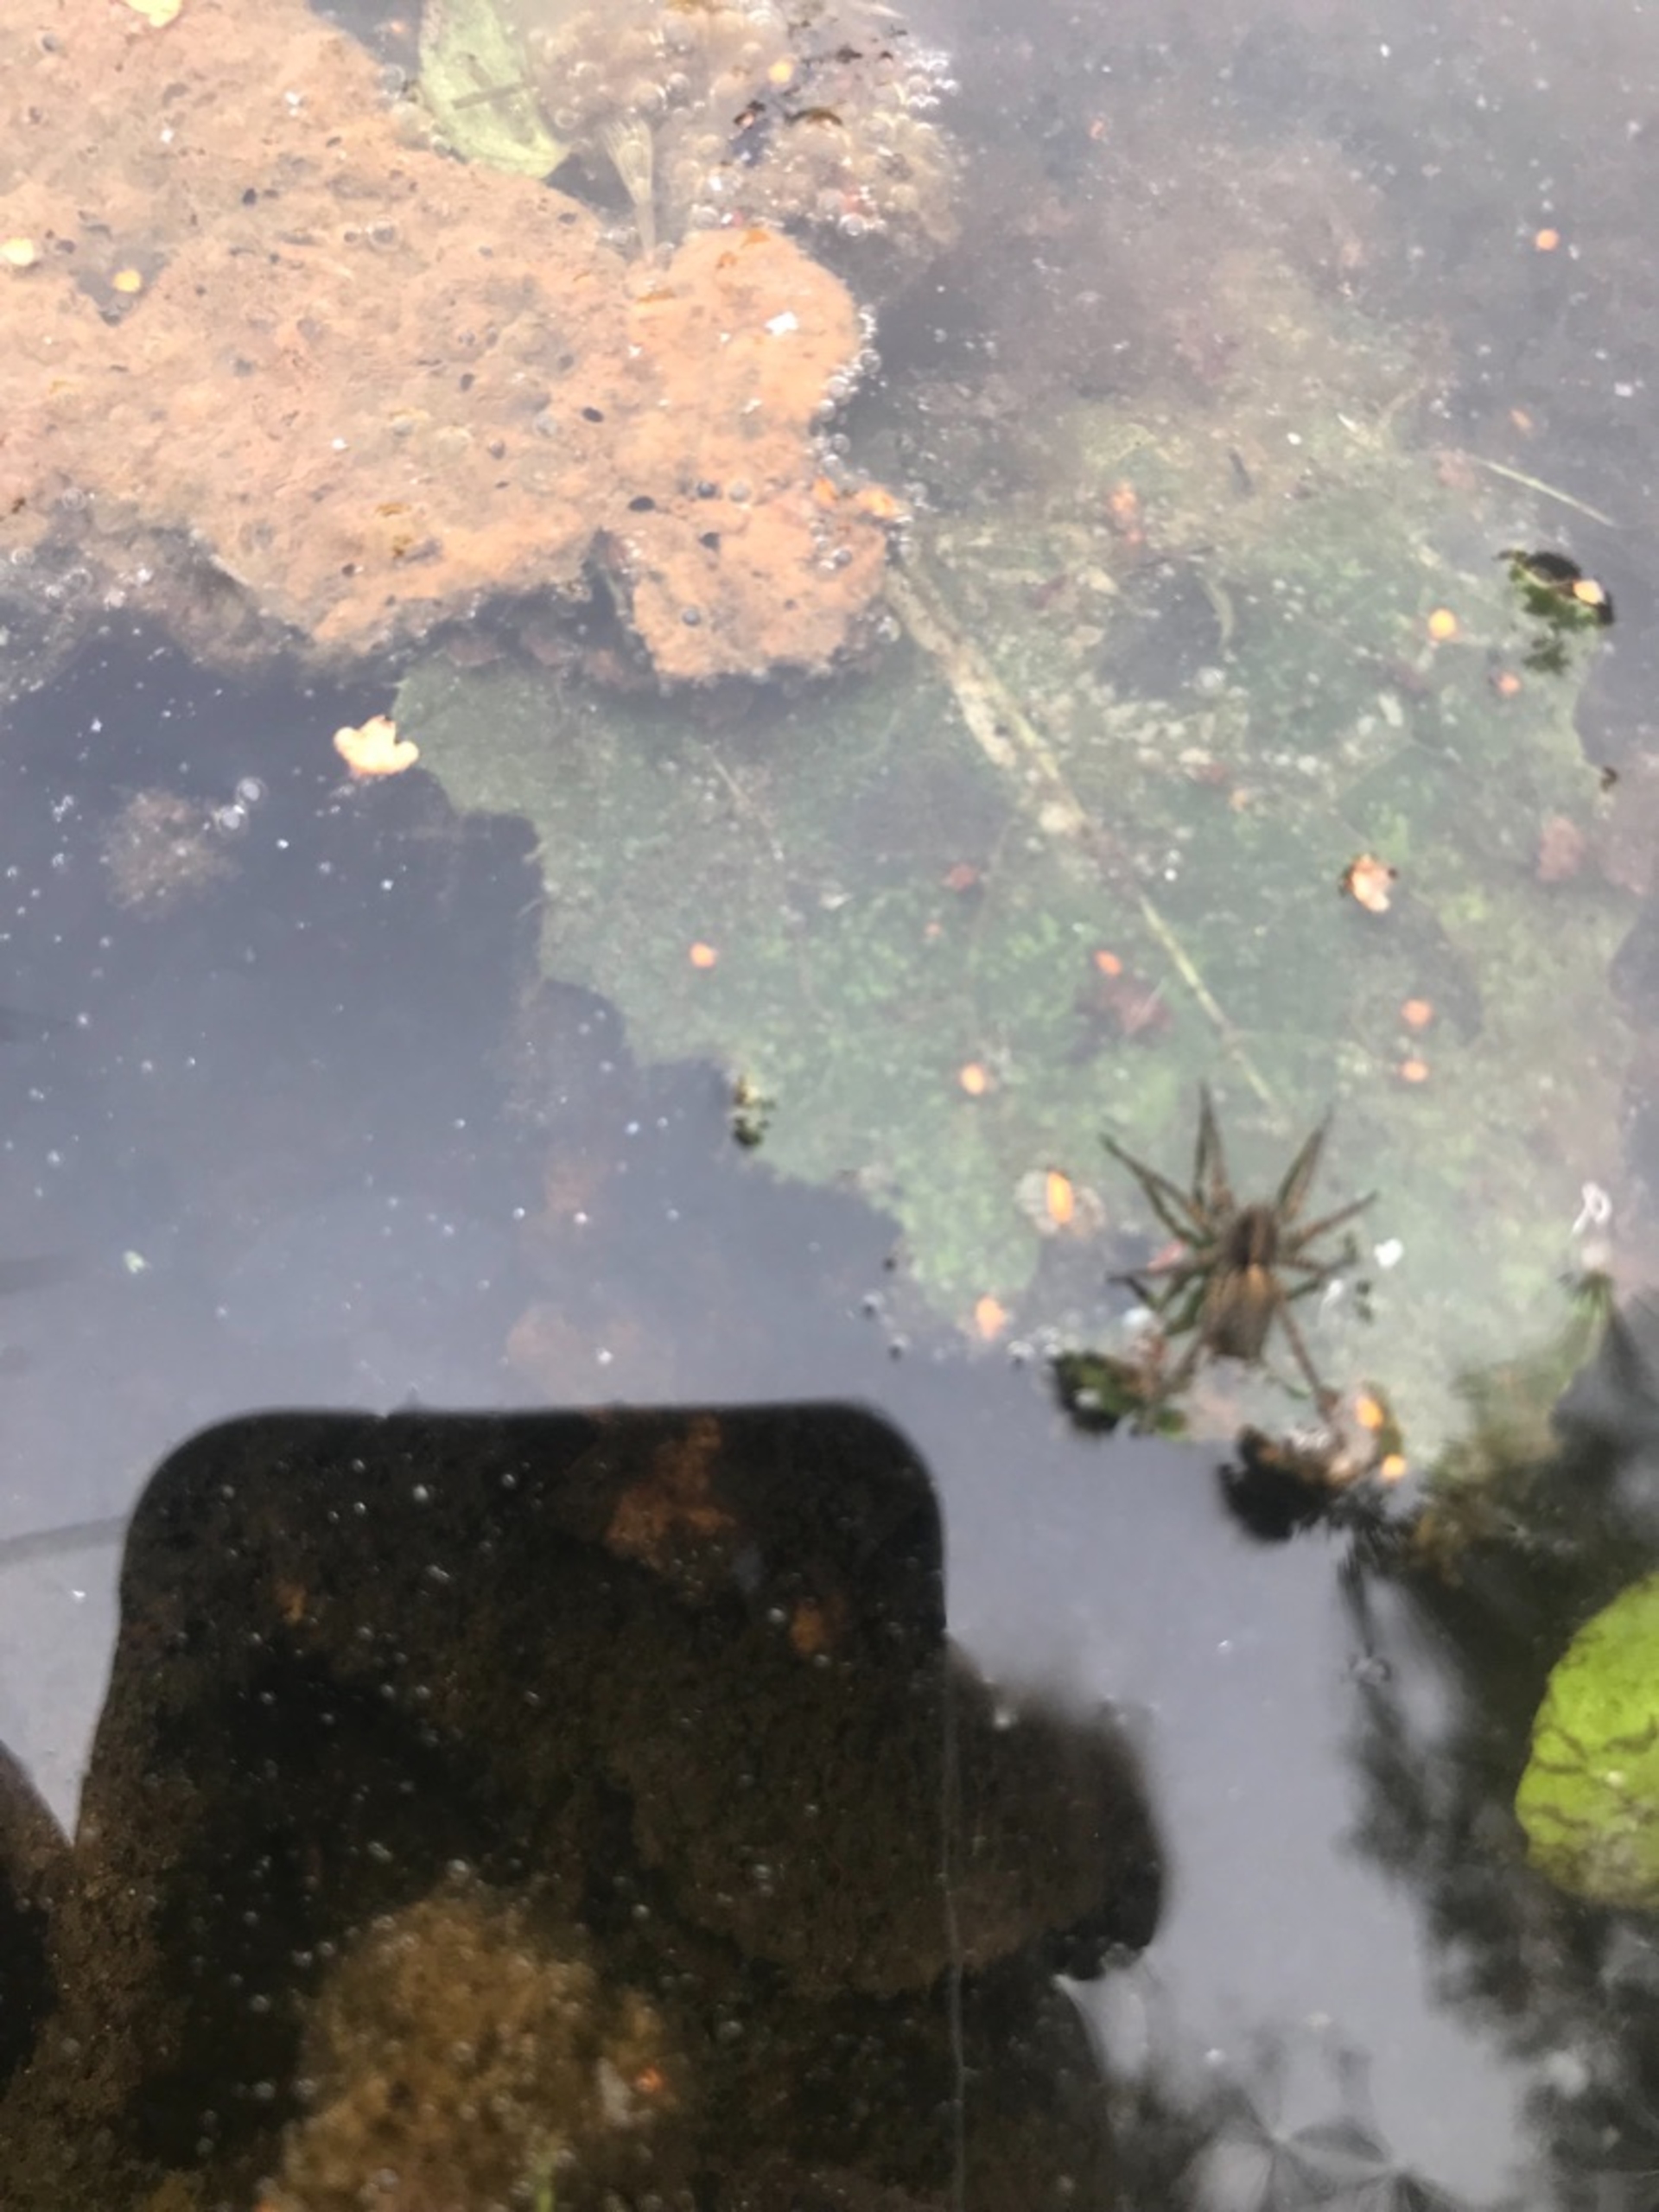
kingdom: Animalia
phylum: Arthropoda
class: Arachnida
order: Araneae
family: Lycosidae
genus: Pardosa
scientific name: Pardosa
